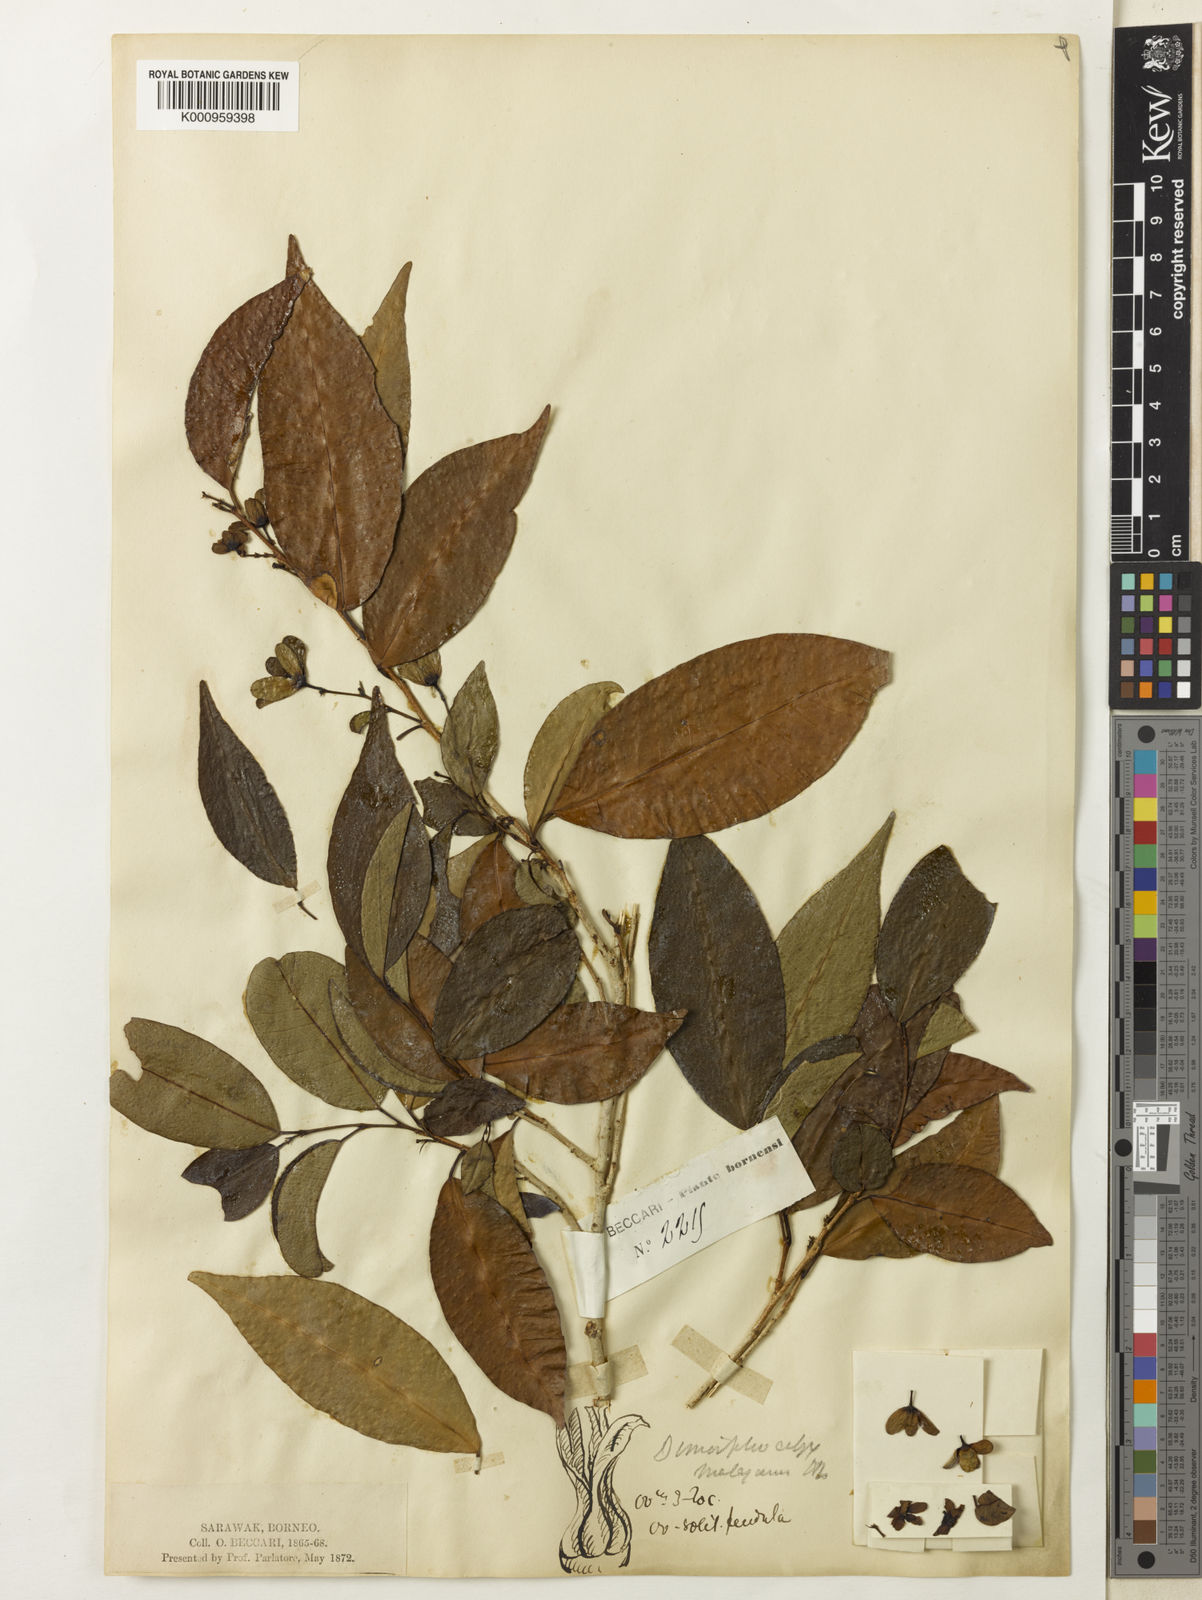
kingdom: Plantae
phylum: Tracheophyta
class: Magnoliopsida
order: Malpighiales
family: Euphorbiaceae
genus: Tritaxis
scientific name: Tritaxis malayana
